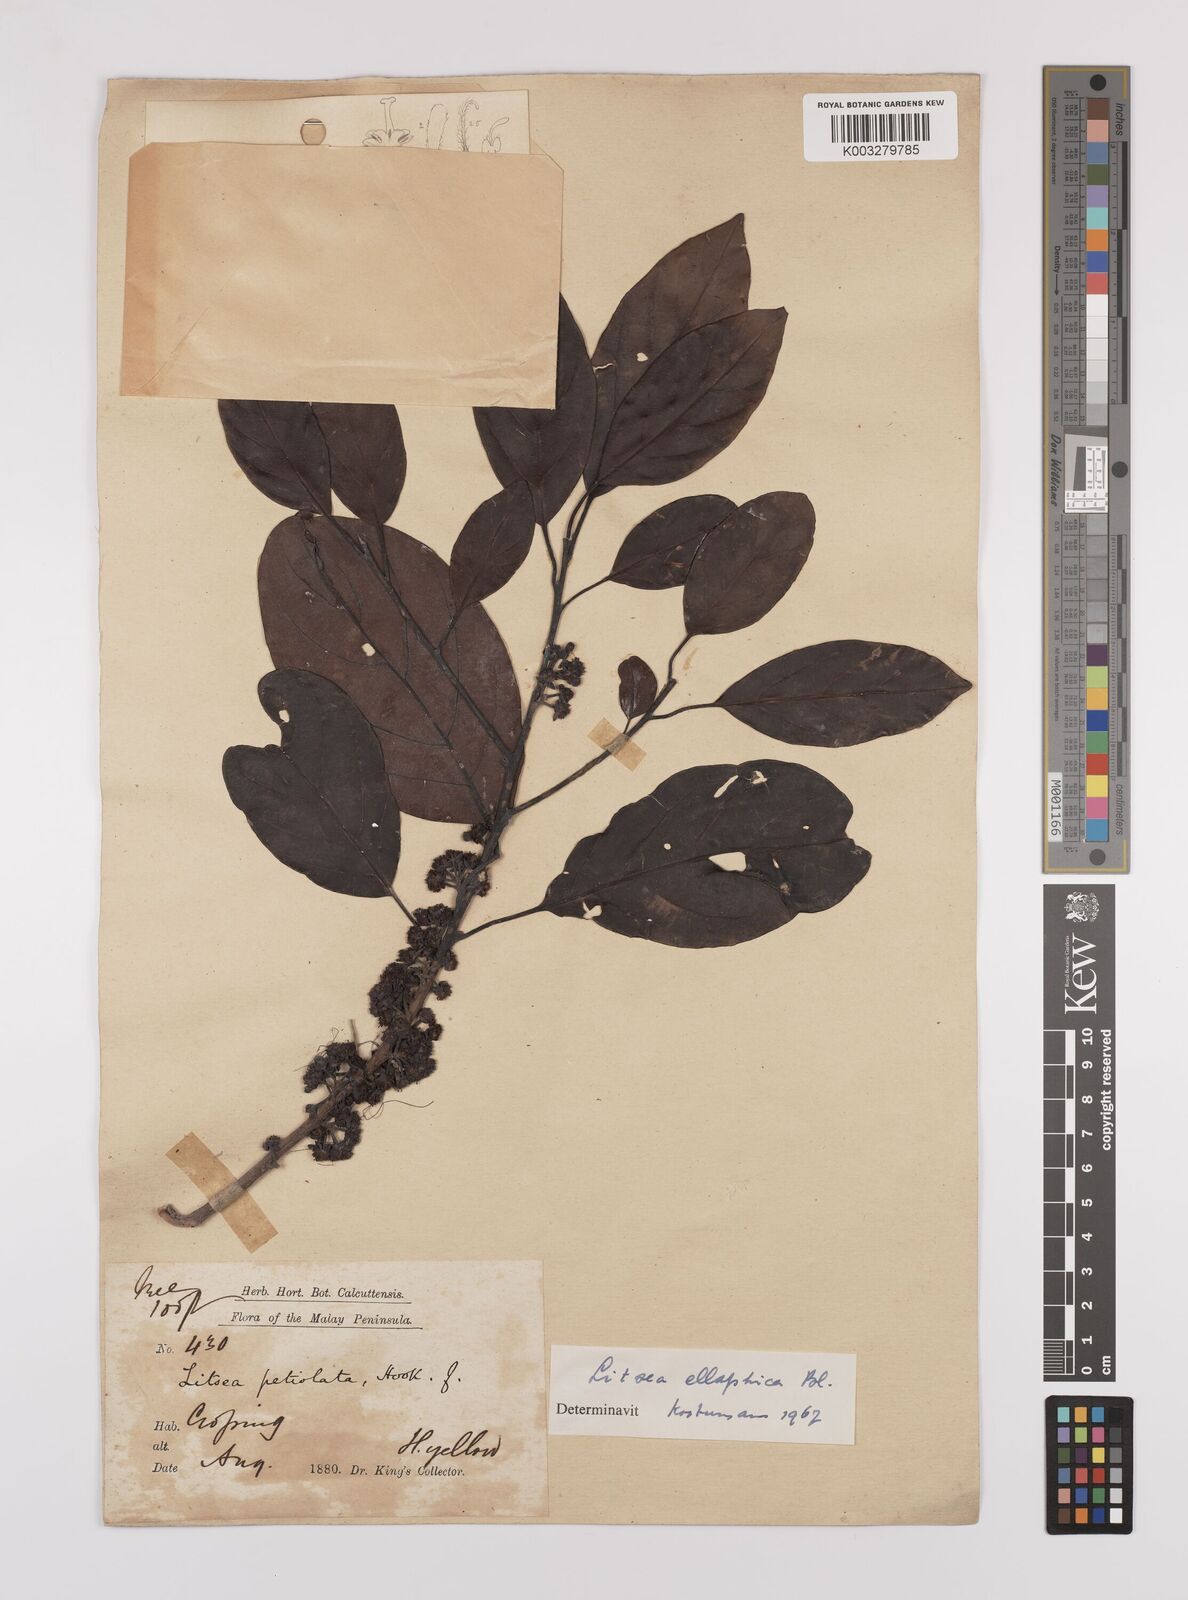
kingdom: Plantae
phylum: Tracheophyta
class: Magnoliopsida
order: Laurales
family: Lauraceae
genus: Litsea
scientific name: Litsea elliptica
